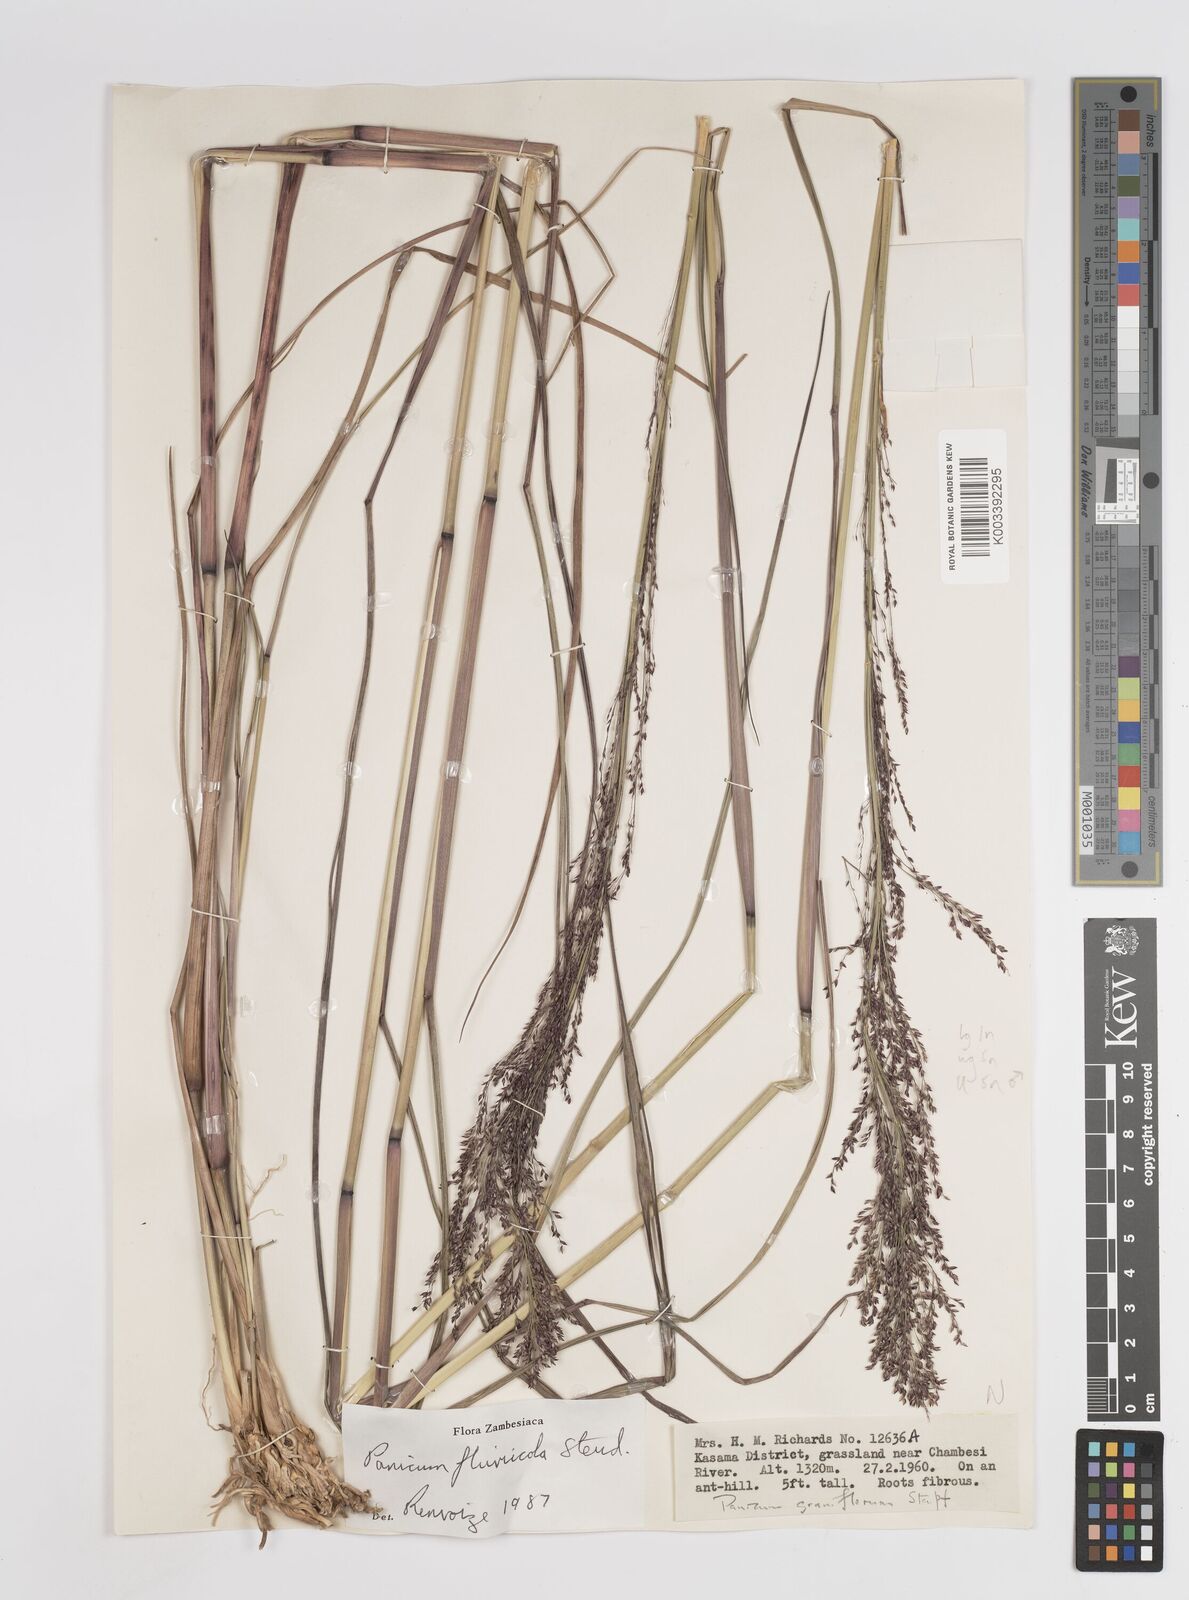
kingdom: Plantae
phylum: Tracheophyta
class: Liliopsida
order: Poales
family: Poaceae
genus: Panicum
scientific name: Panicum fluviicola
